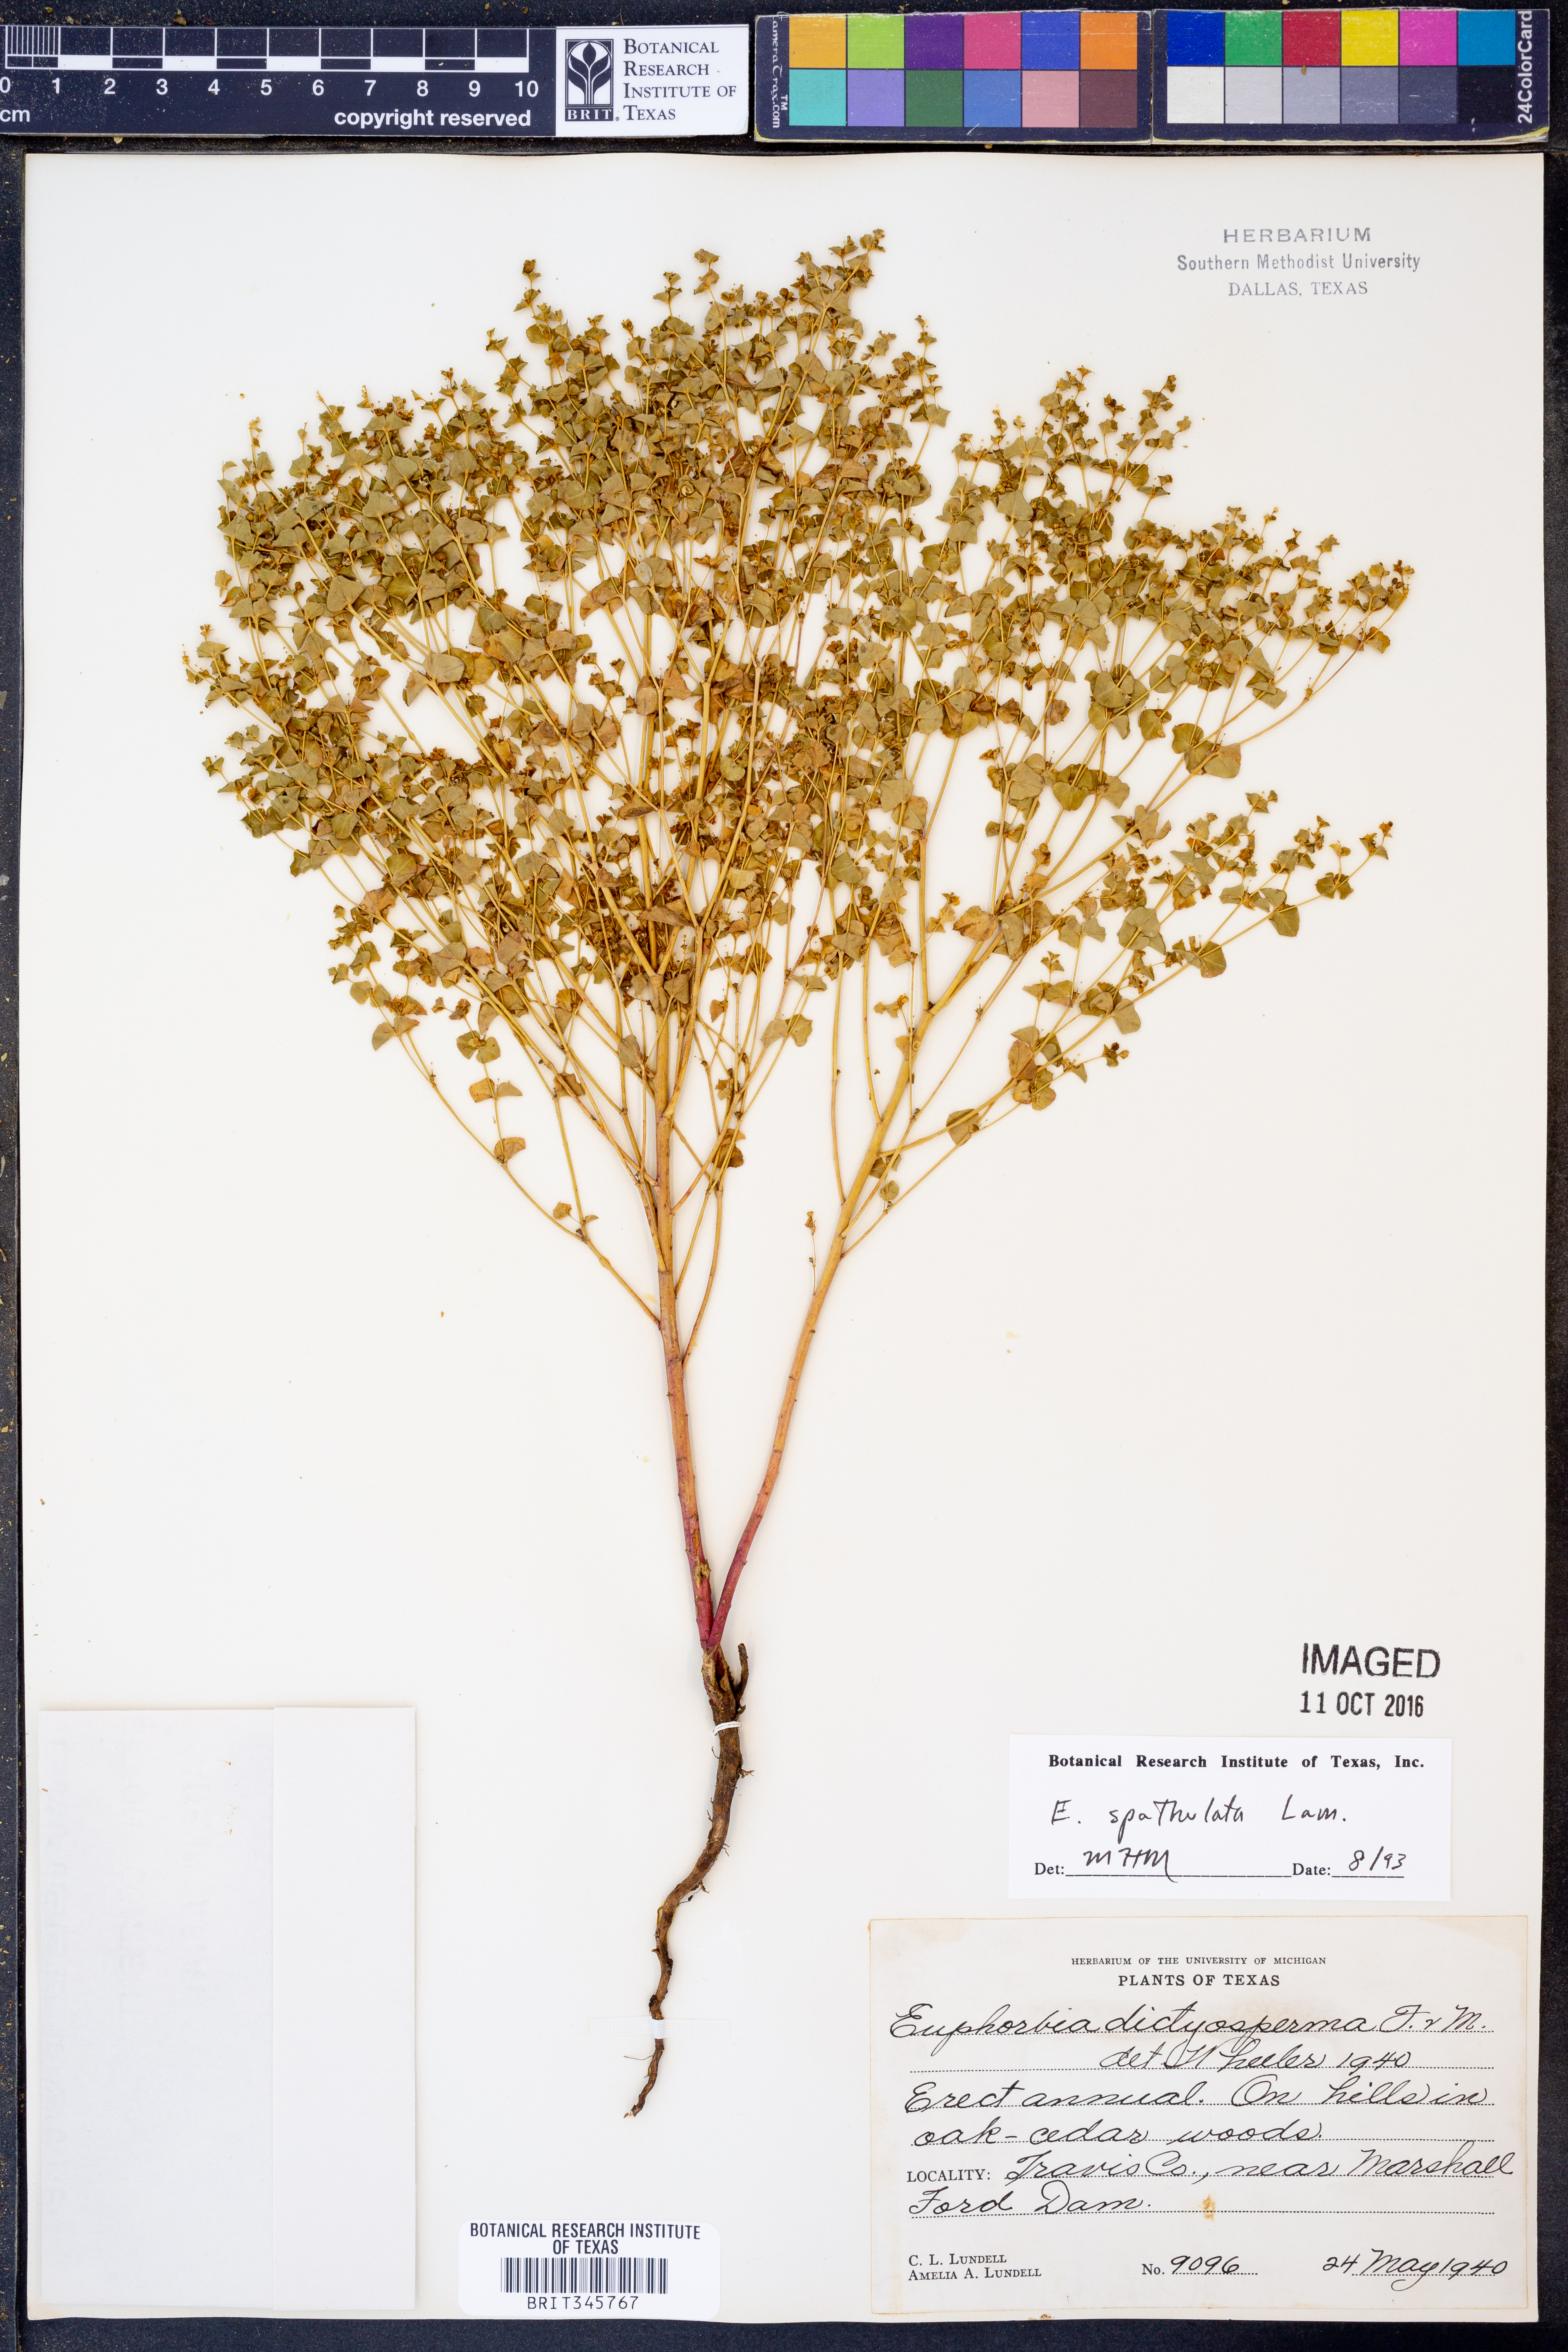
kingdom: Plantae
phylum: Tracheophyta
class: Magnoliopsida
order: Malpighiales
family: Euphorbiaceae
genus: Euphorbia
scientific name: Euphorbia spathulata
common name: Blunt spurge
